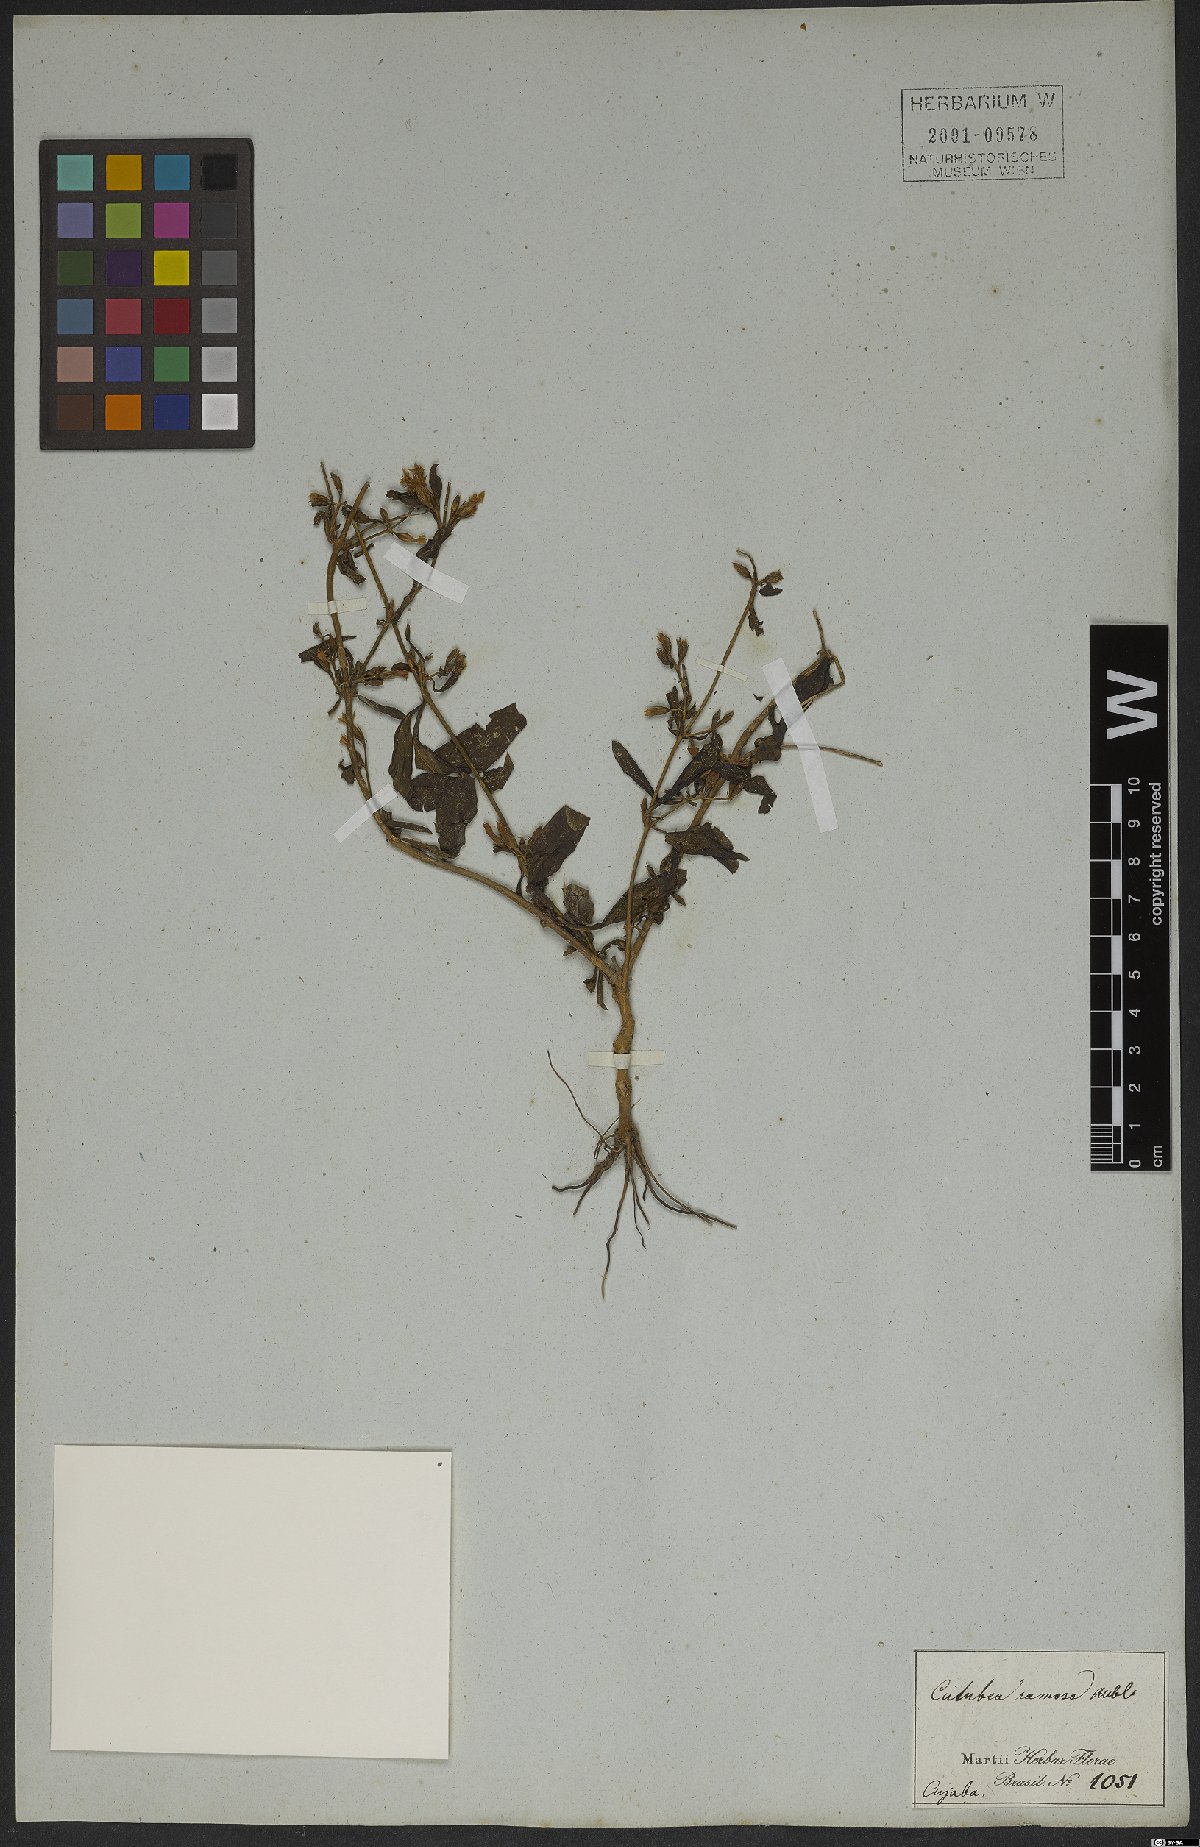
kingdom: Plantae
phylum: Tracheophyta
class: Magnoliopsida
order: Gentianales
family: Gentianaceae
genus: Coutoubea
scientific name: Coutoubea ramosa
